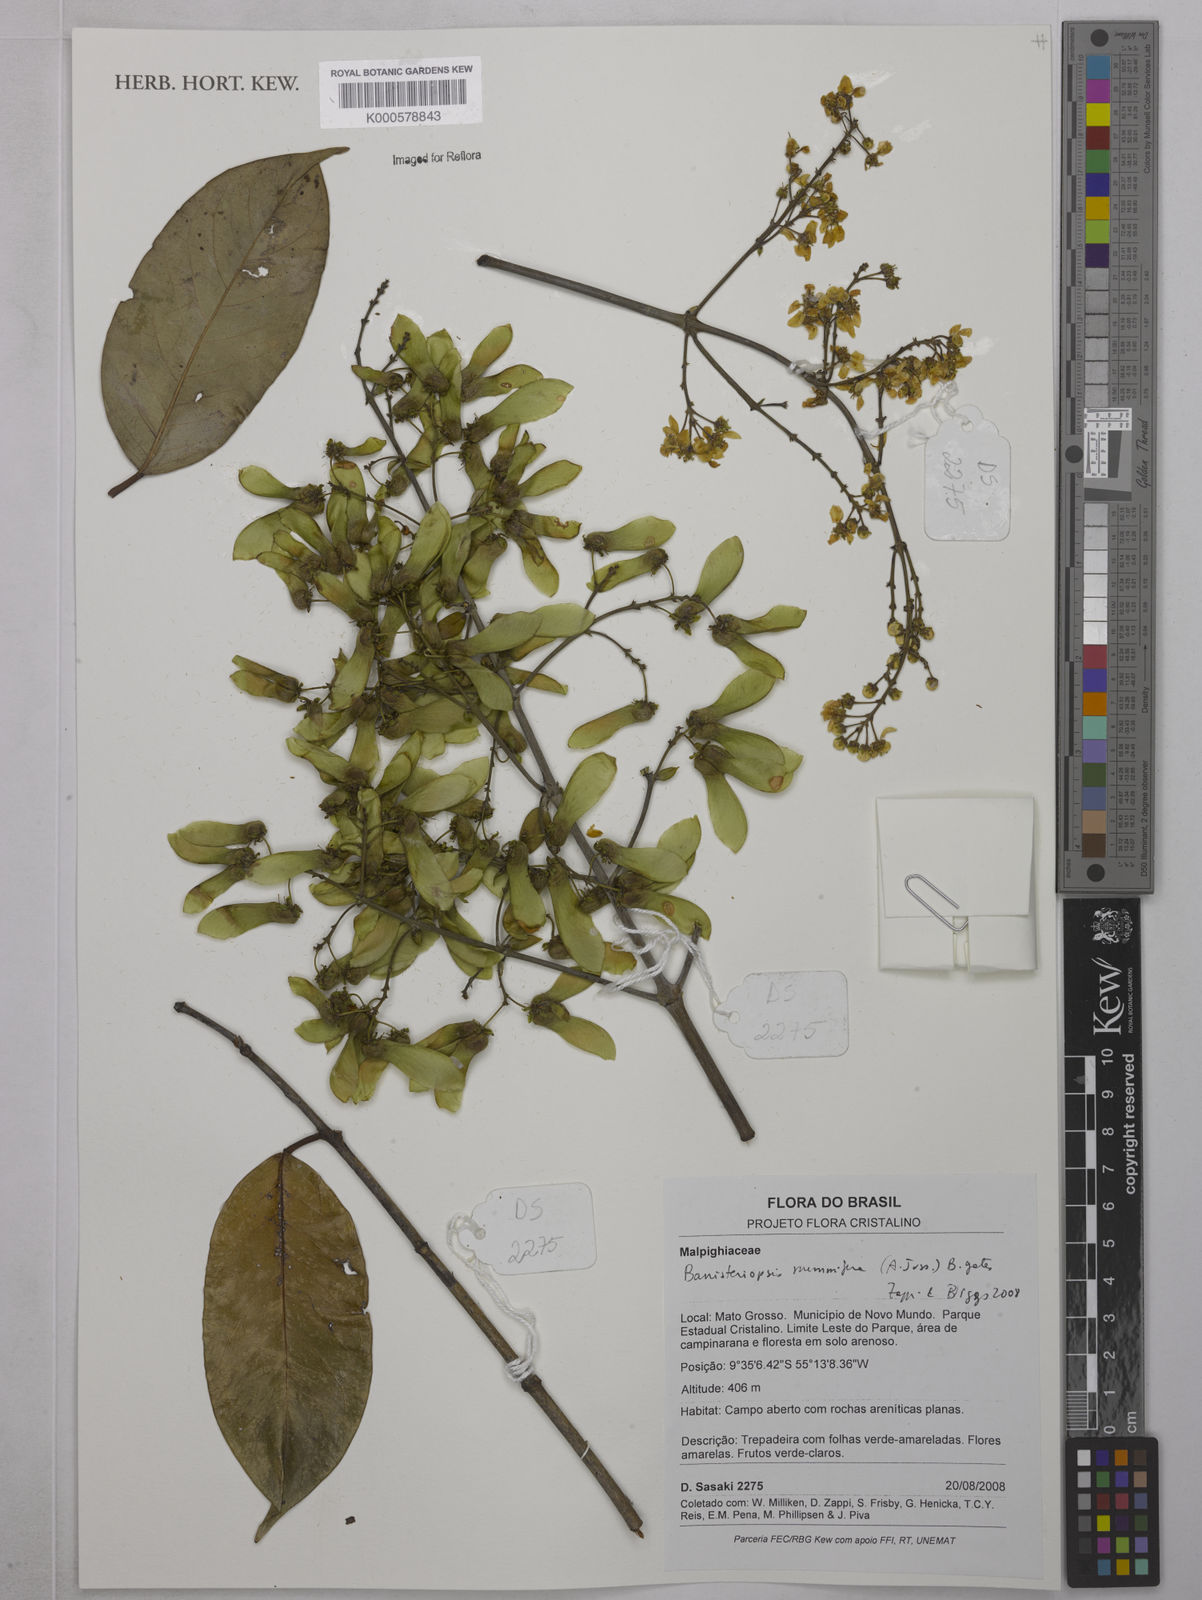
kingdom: Plantae
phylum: Tracheophyta
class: Magnoliopsida
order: Malpighiales
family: Malpighiaceae
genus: Banisteriopsis
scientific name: Banisteriopsis nummifera
